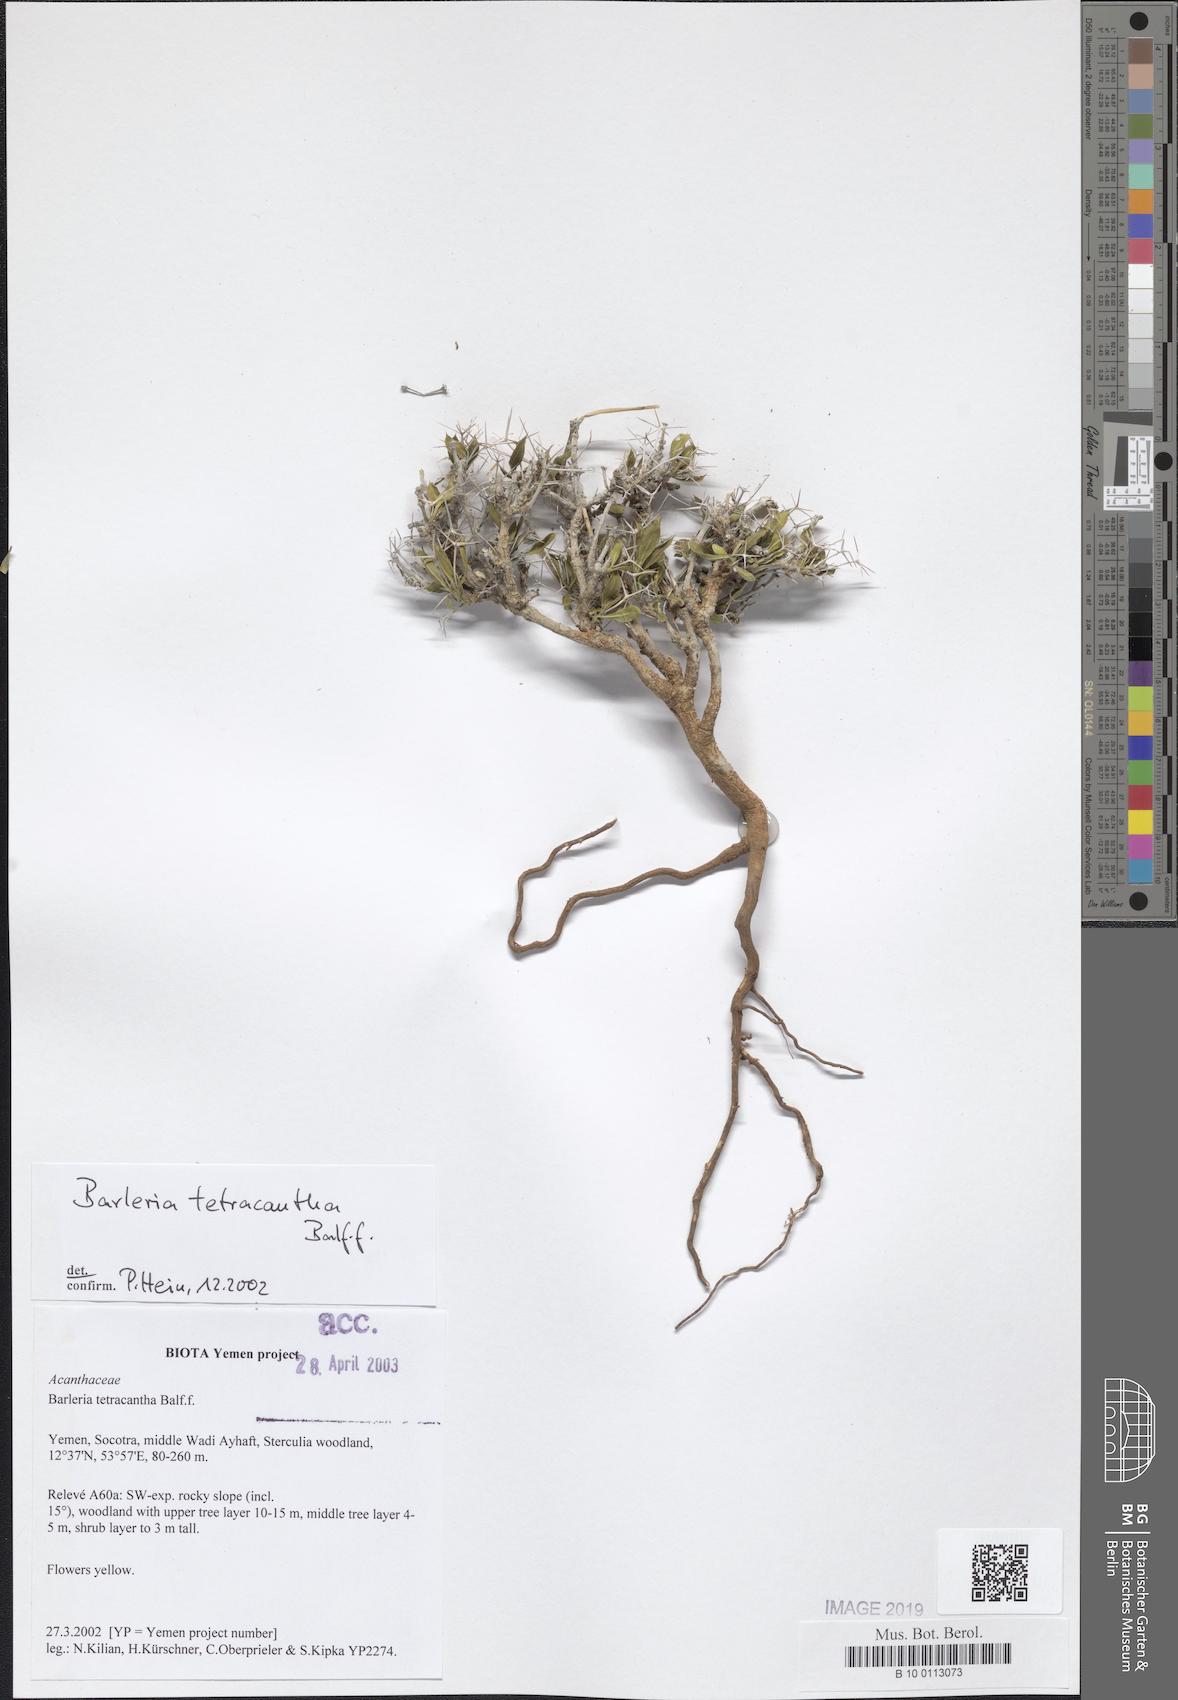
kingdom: Plantae
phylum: Tracheophyta
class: Magnoliopsida
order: Lamiales
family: Acanthaceae
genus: Barleria
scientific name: Barleria tetracantha
